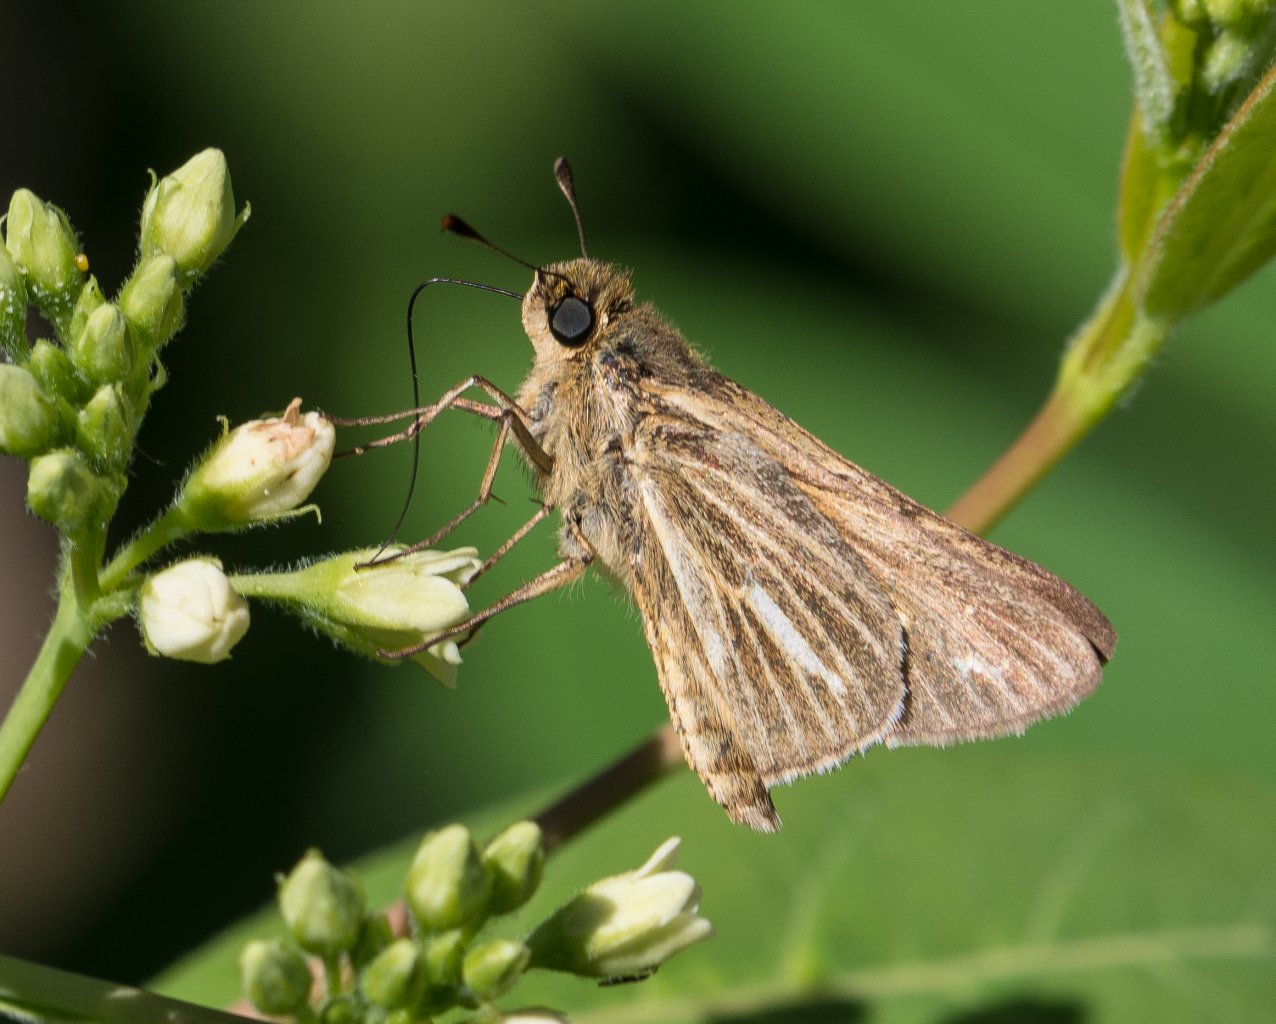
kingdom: Animalia
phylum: Arthropoda
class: Insecta
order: Lepidoptera
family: Hesperiidae
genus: Panoquina
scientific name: Panoquina panoquin
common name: Salt Marsh Skipper
